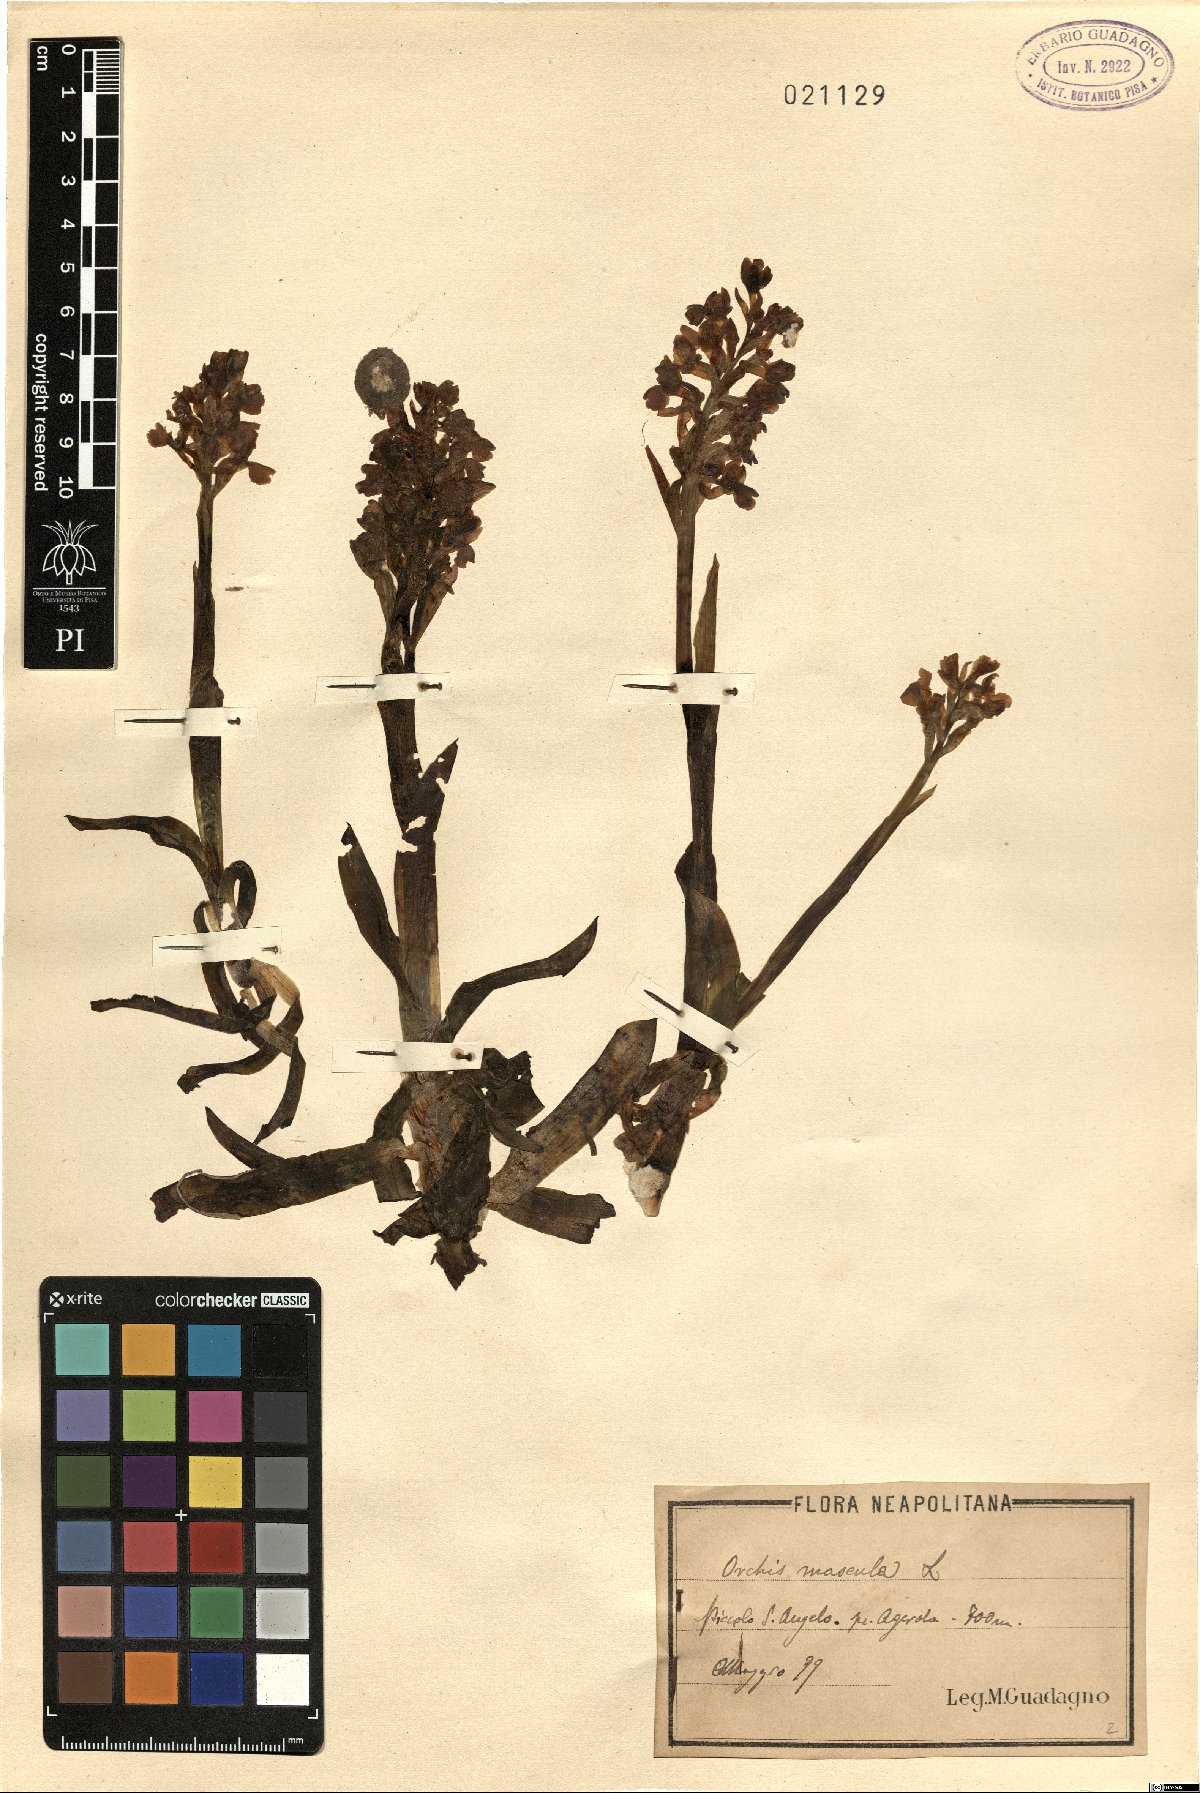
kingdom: Plantae
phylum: Tracheophyta
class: Liliopsida
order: Asparagales
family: Orchidaceae
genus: Orchis
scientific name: Orchis mascula
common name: Early-purple orchid
